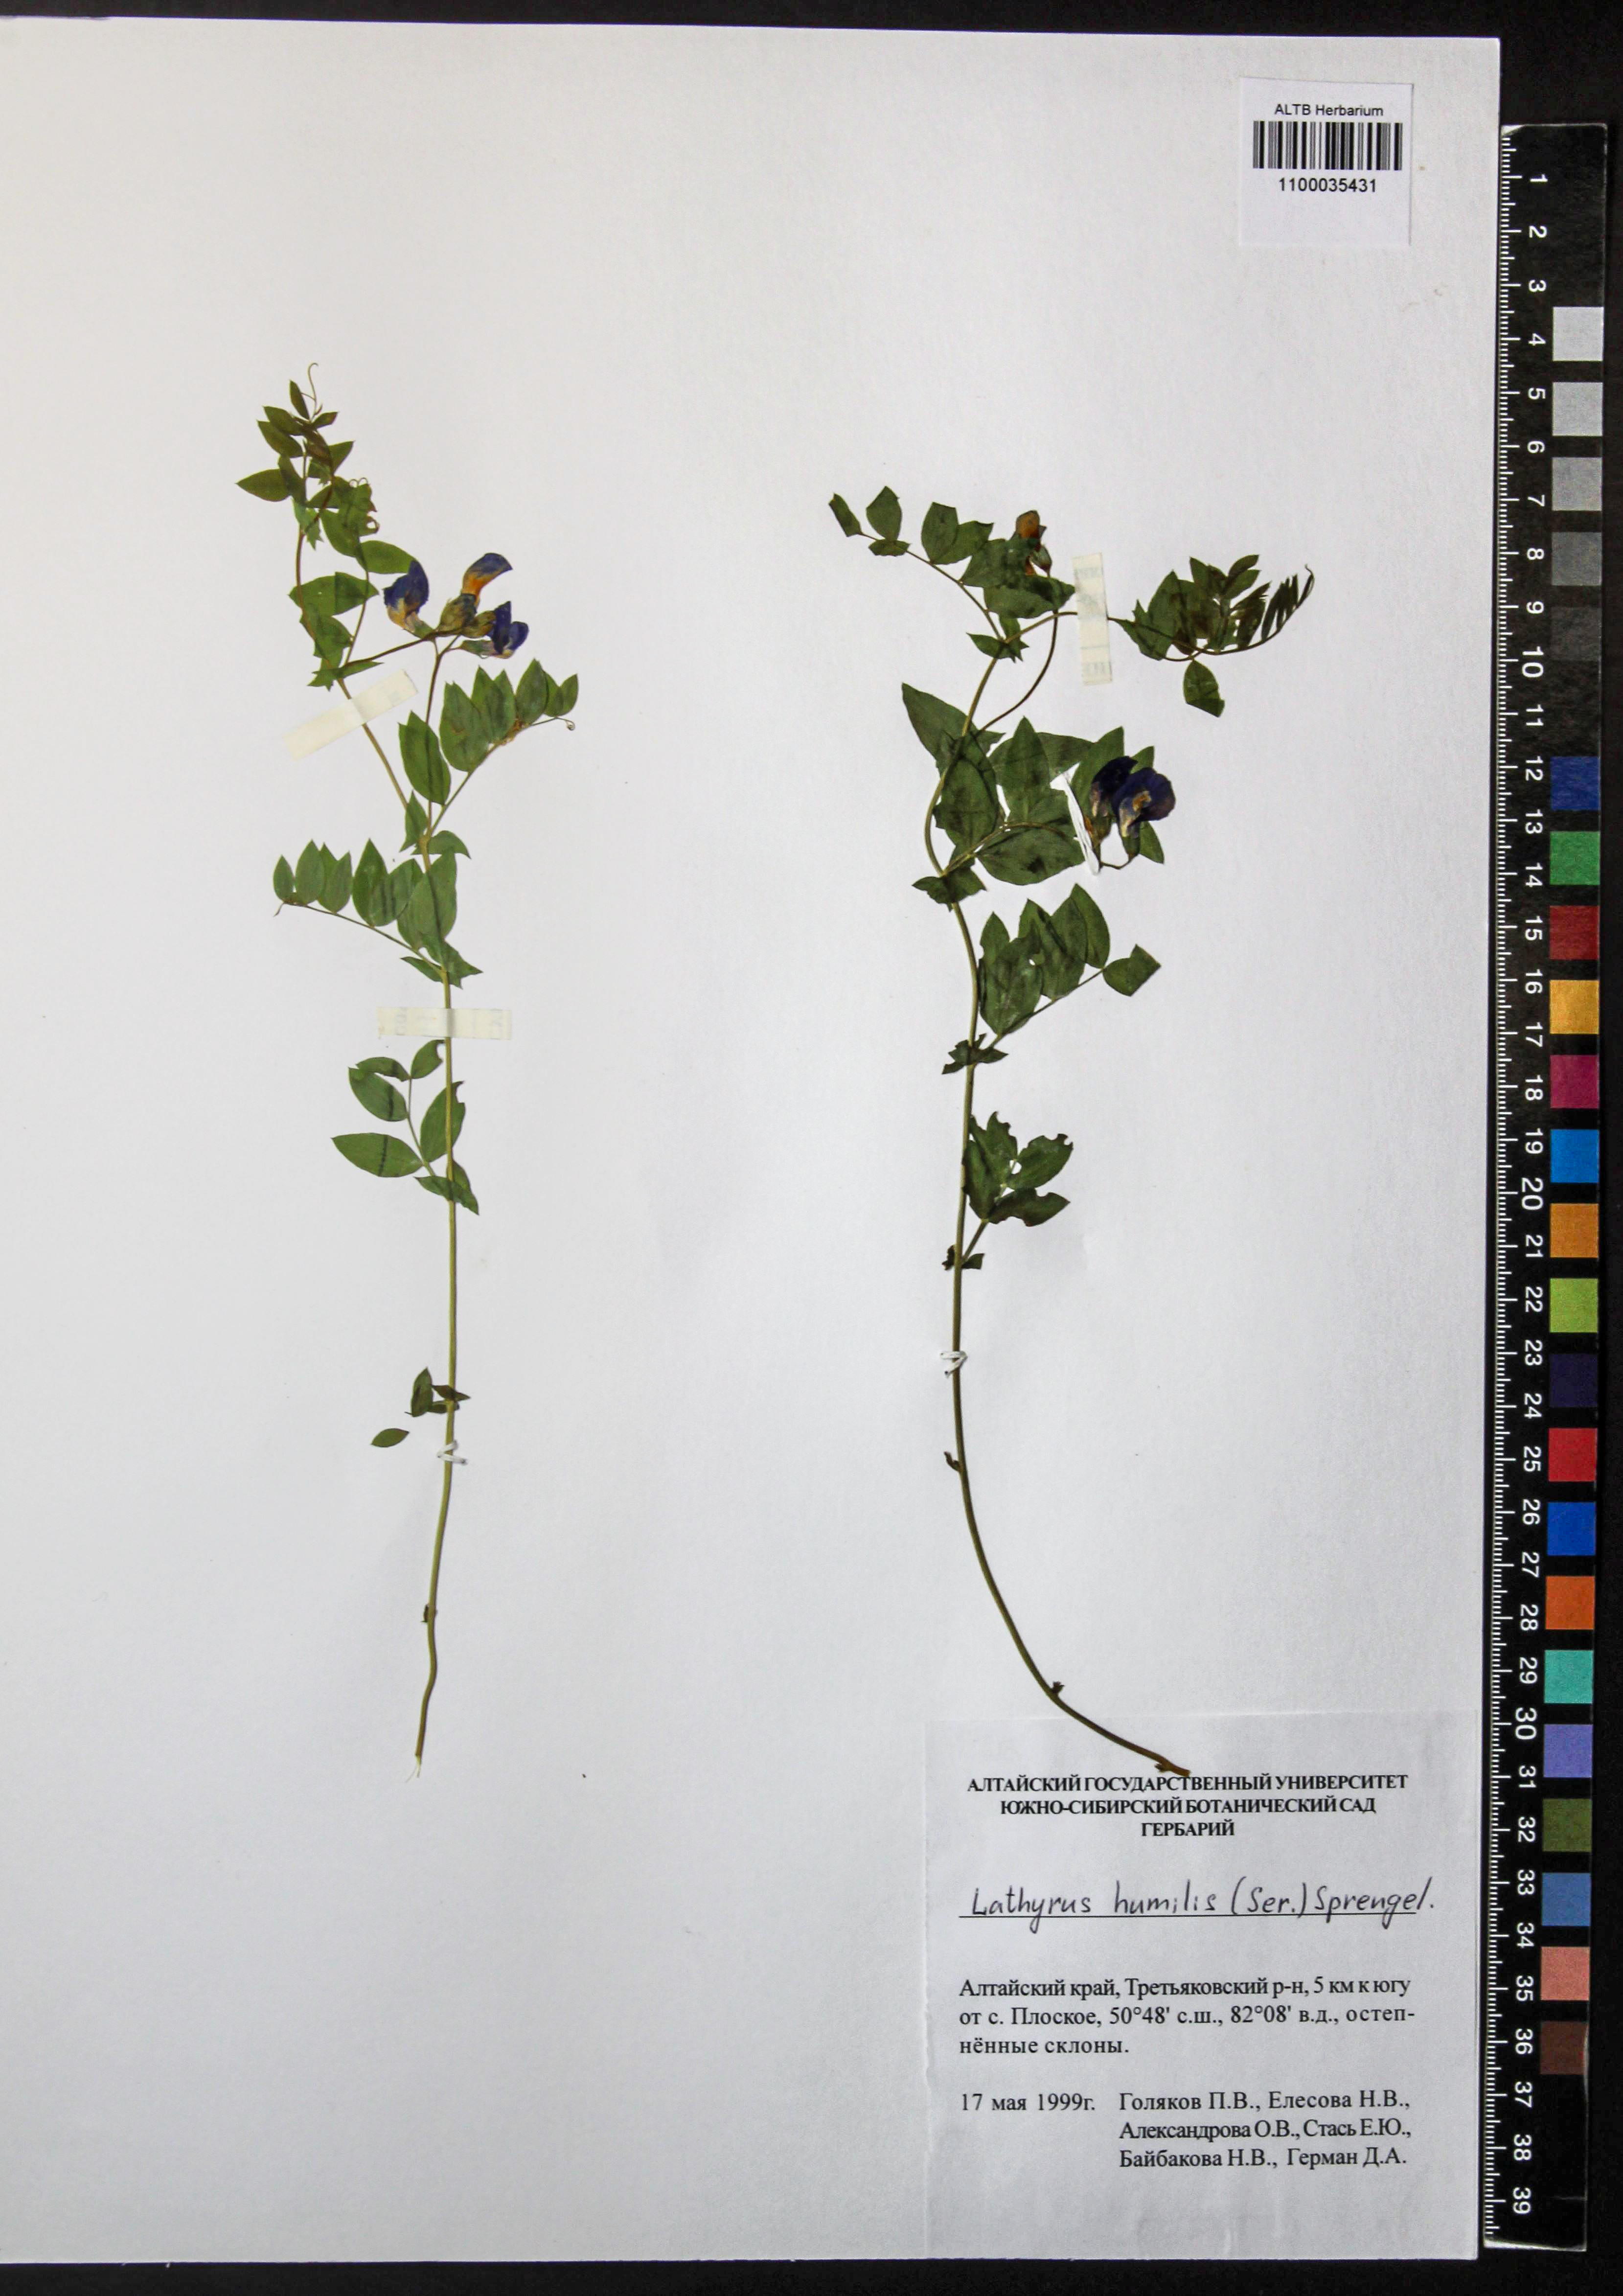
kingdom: Plantae
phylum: Tracheophyta
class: Magnoliopsida
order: Fabales
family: Fabaceae
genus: Lathyrus
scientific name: Lathyrus humilis
